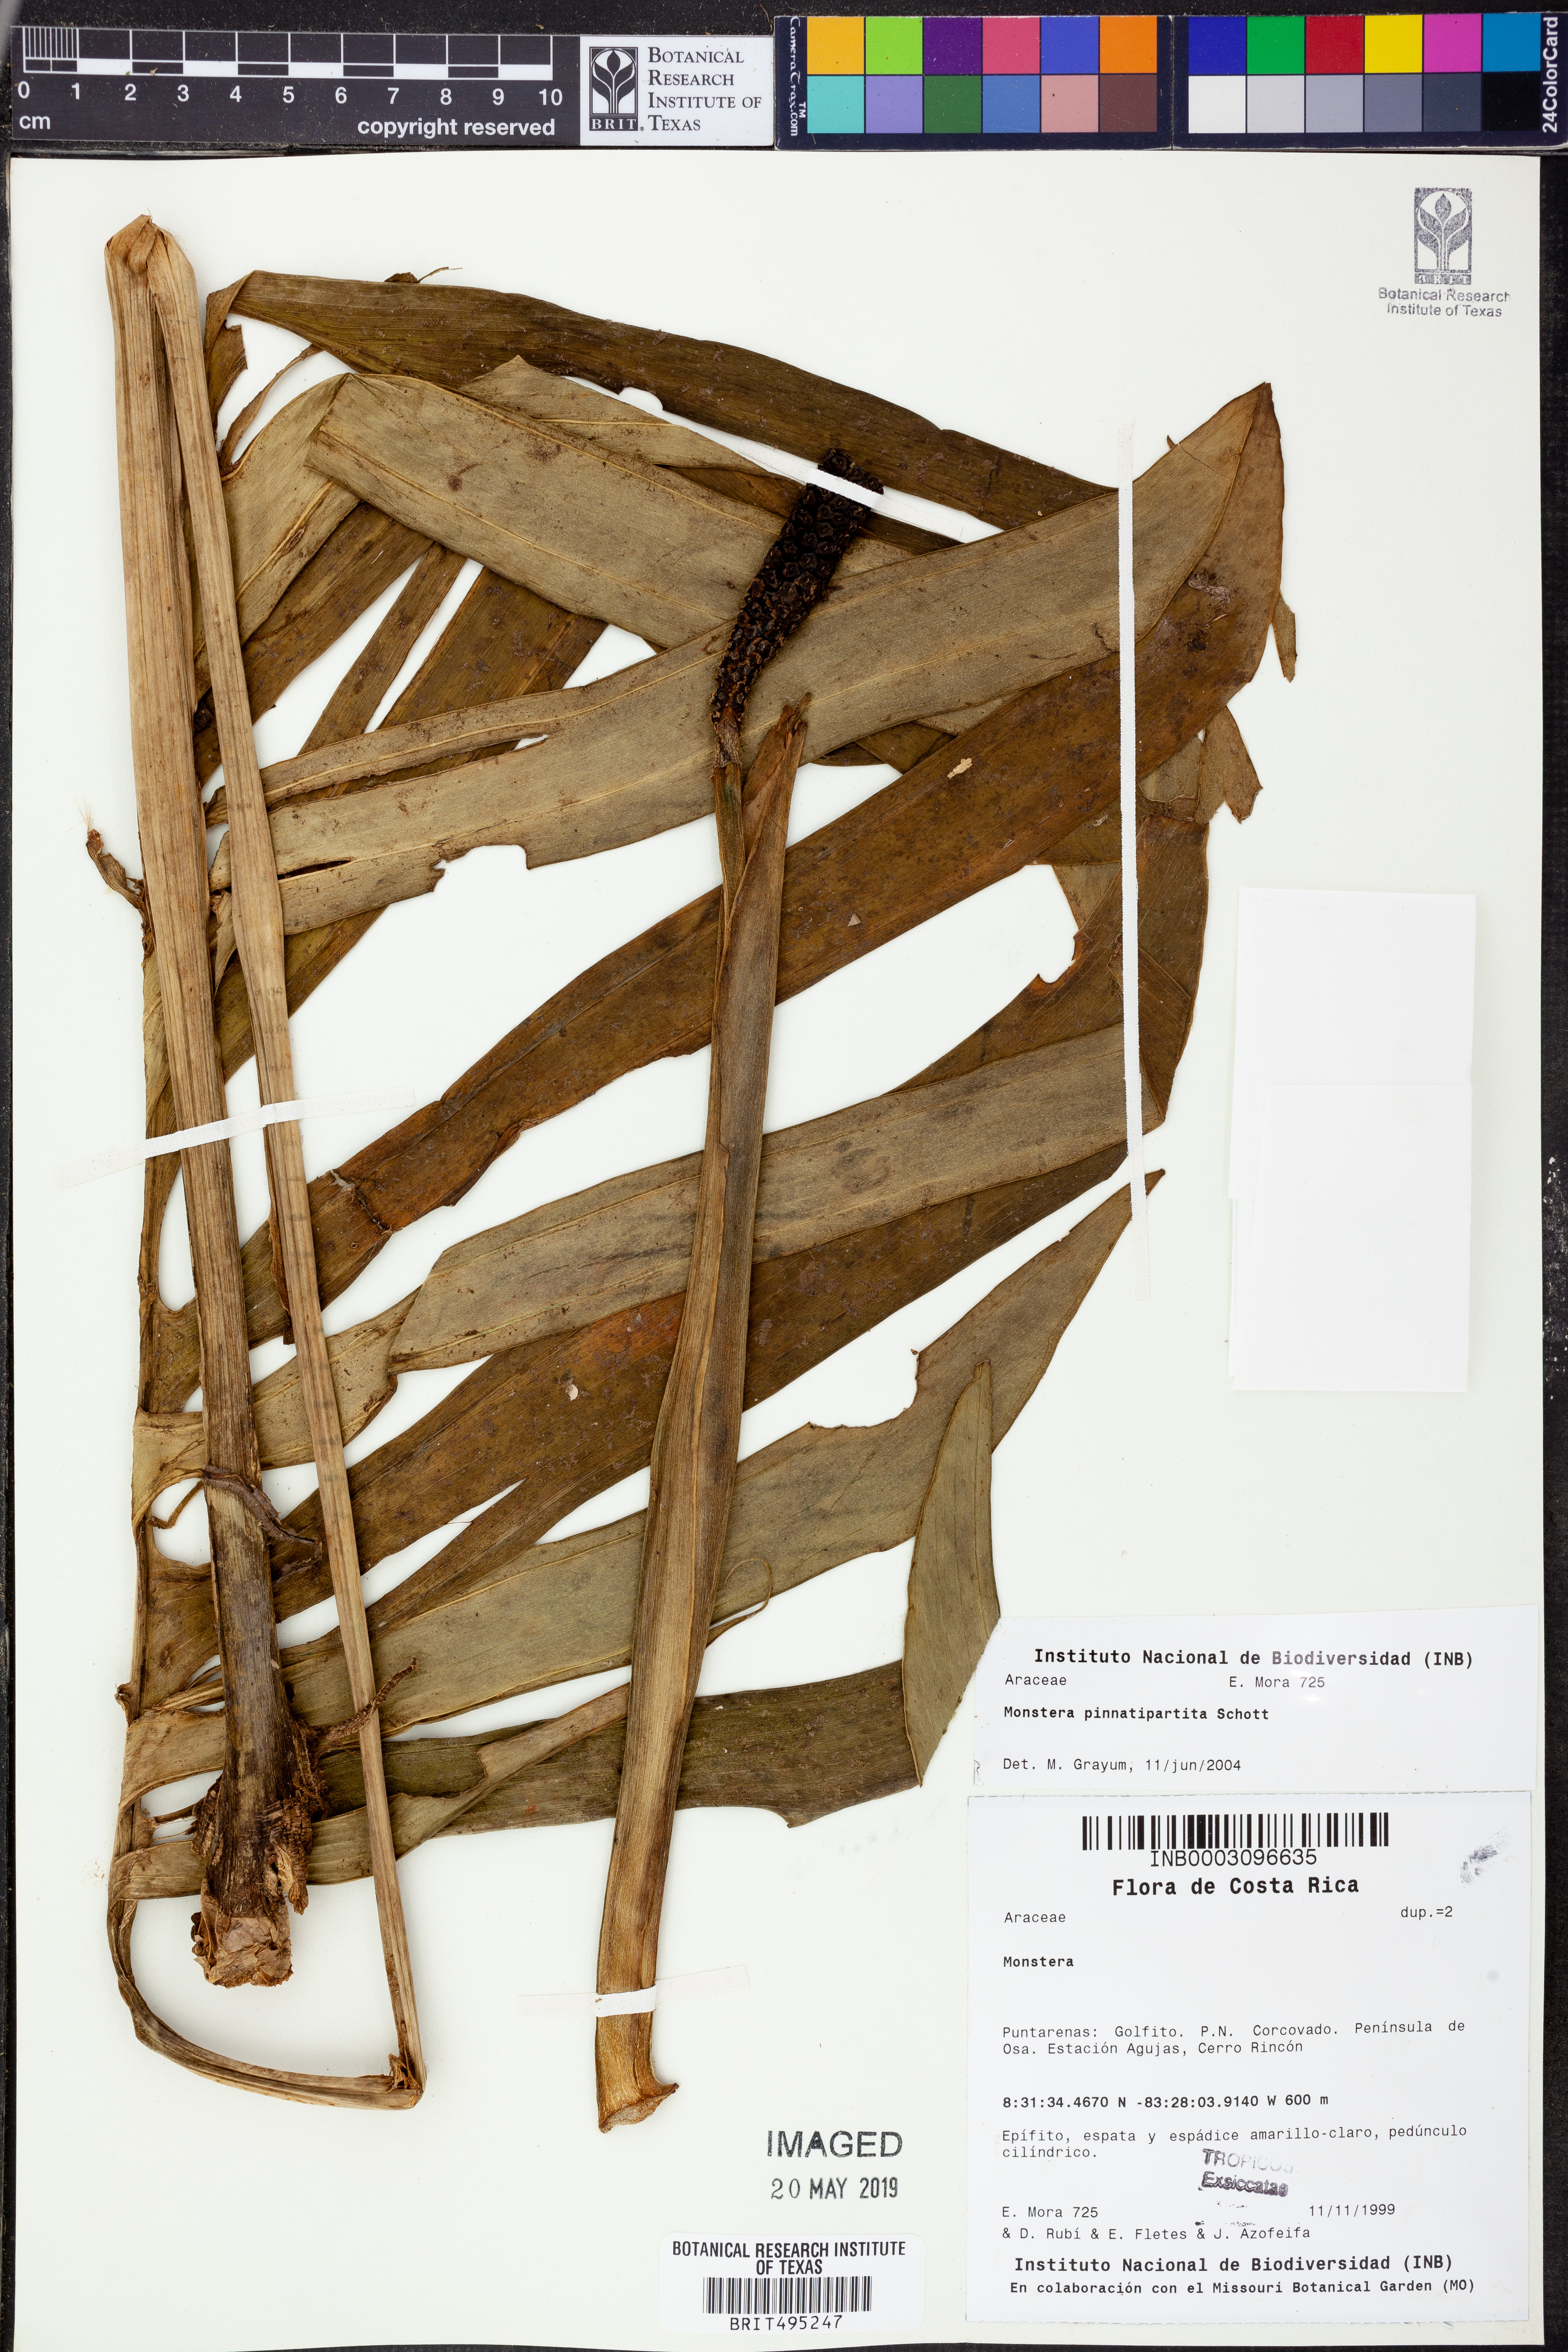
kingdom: Plantae
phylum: Tracheophyta
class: Liliopsida
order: Alismatales
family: Araceae
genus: Monstera
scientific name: Monstera pinnatipartita
